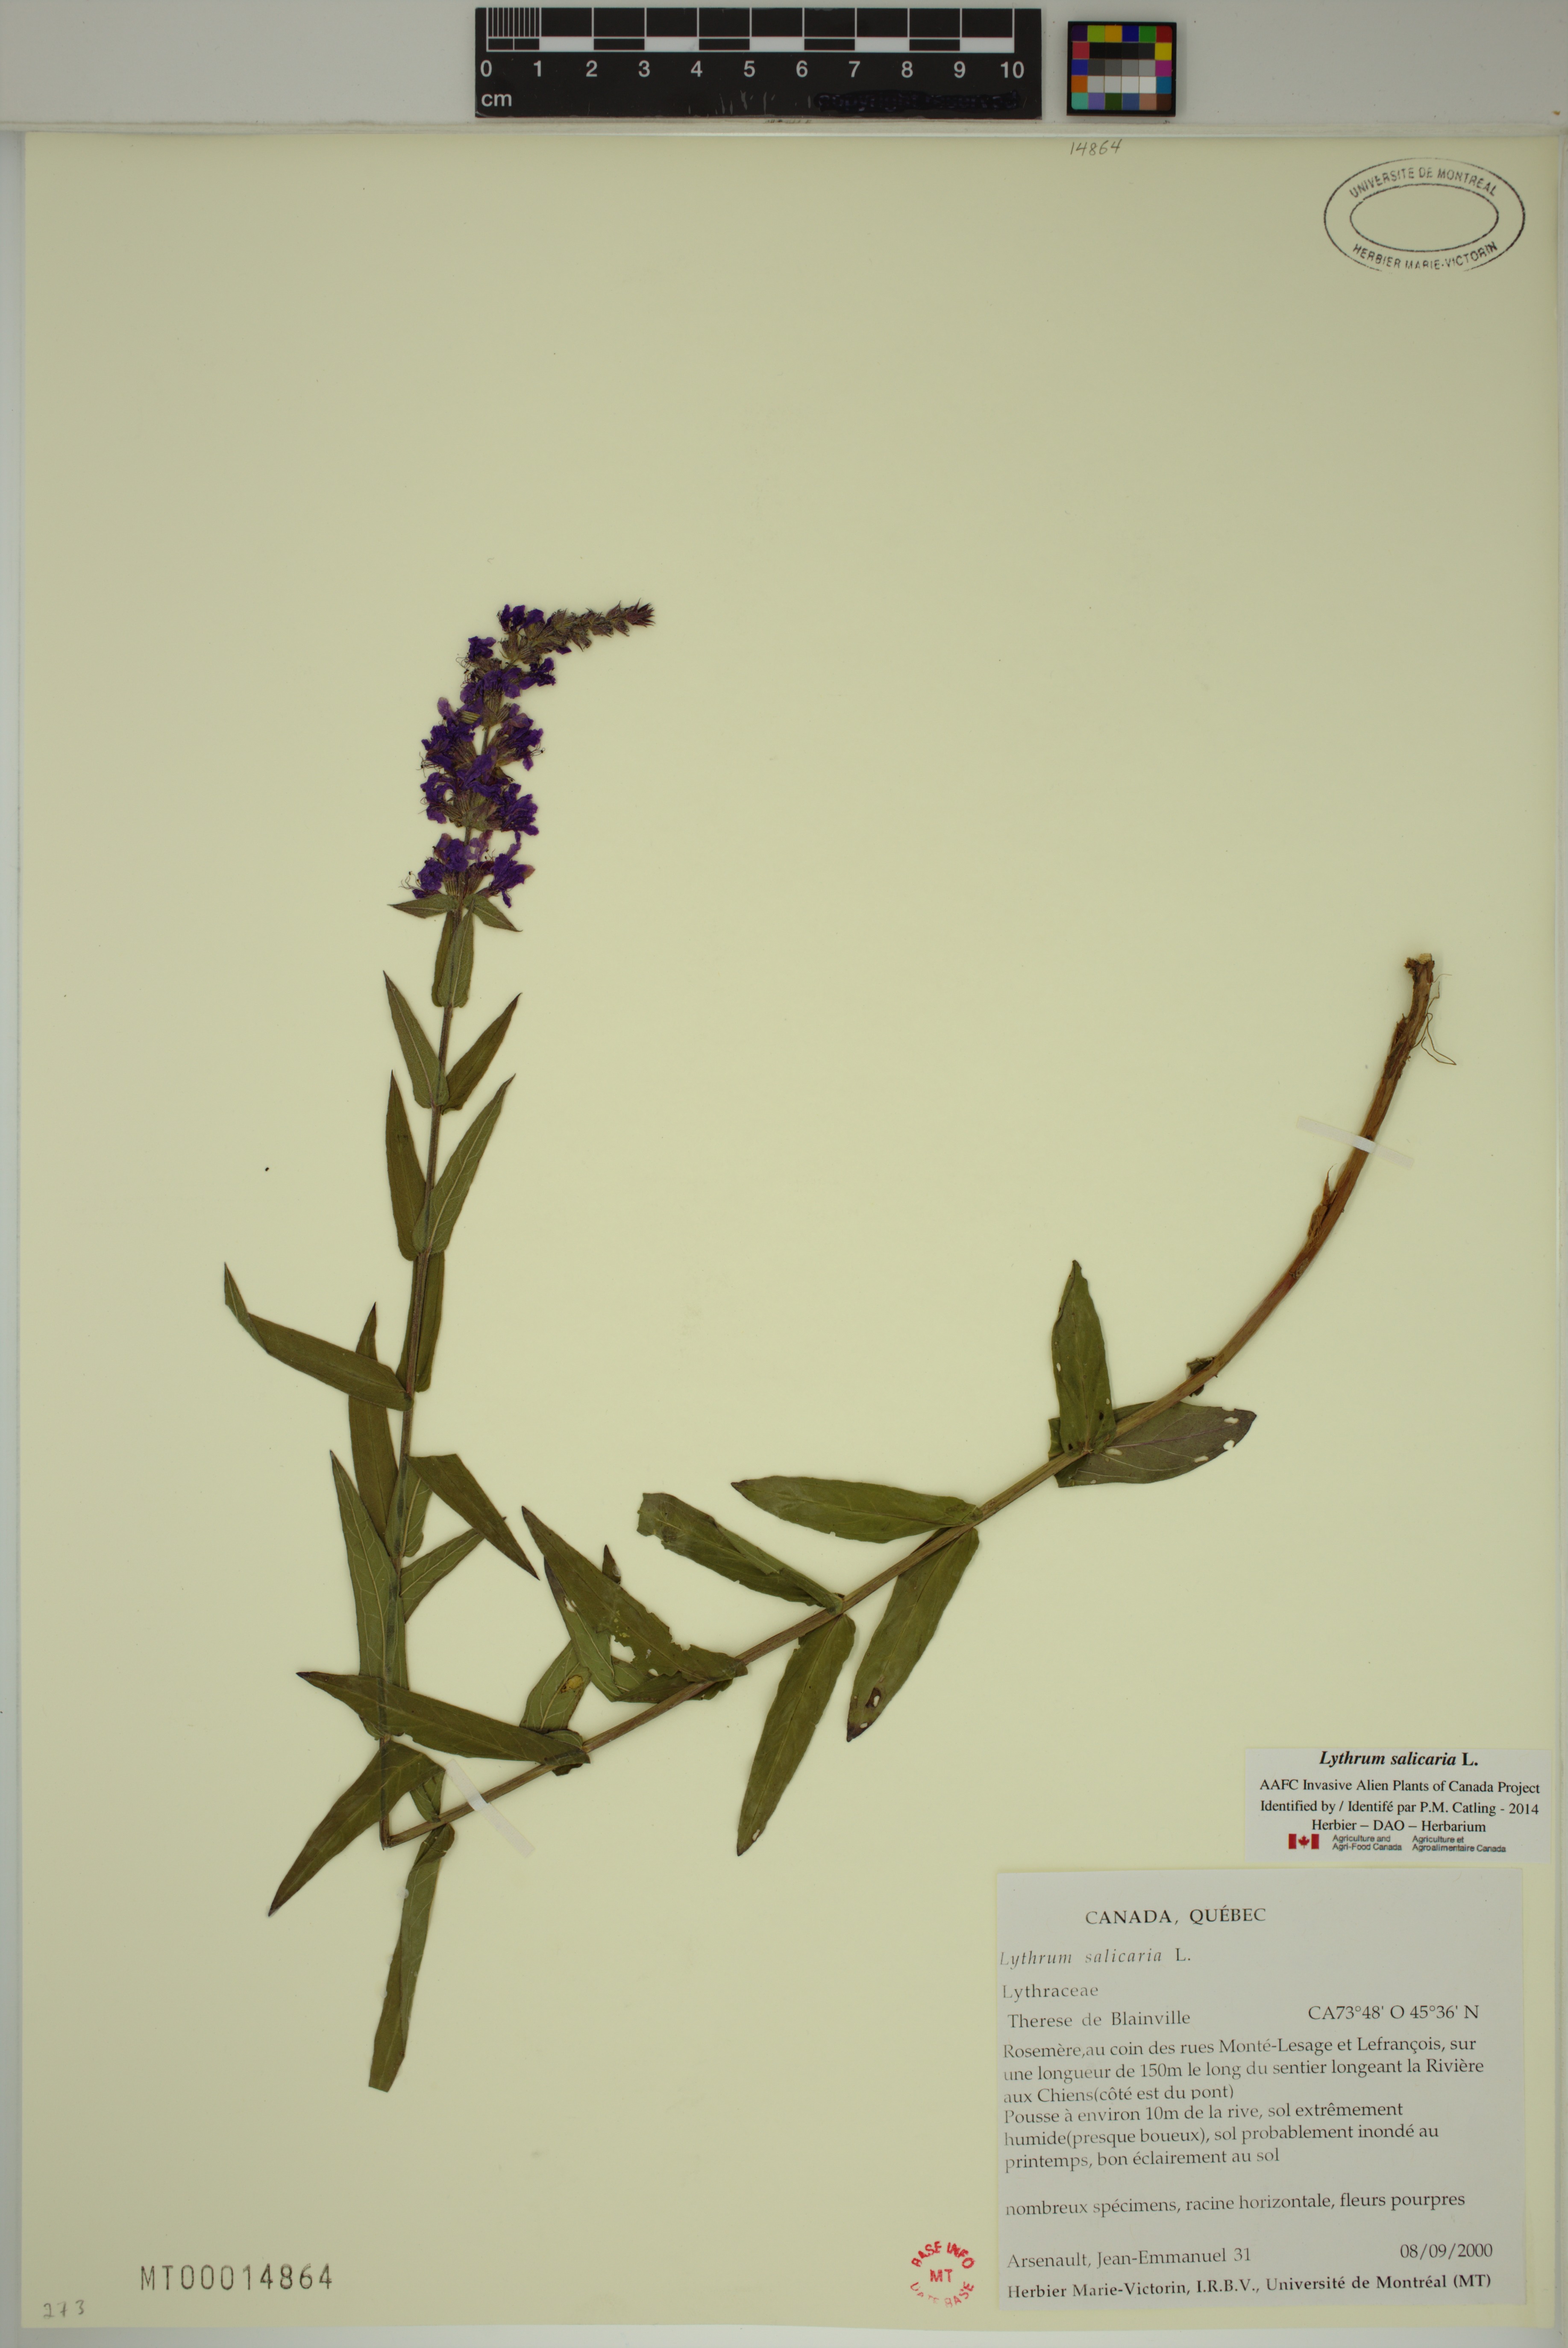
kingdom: Plantae
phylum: Tracheophyta
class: Magnoliopsida
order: Myrtales
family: Lythraceae
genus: Lythrum
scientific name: Lythrum salicaria
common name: Purple loosestrife
